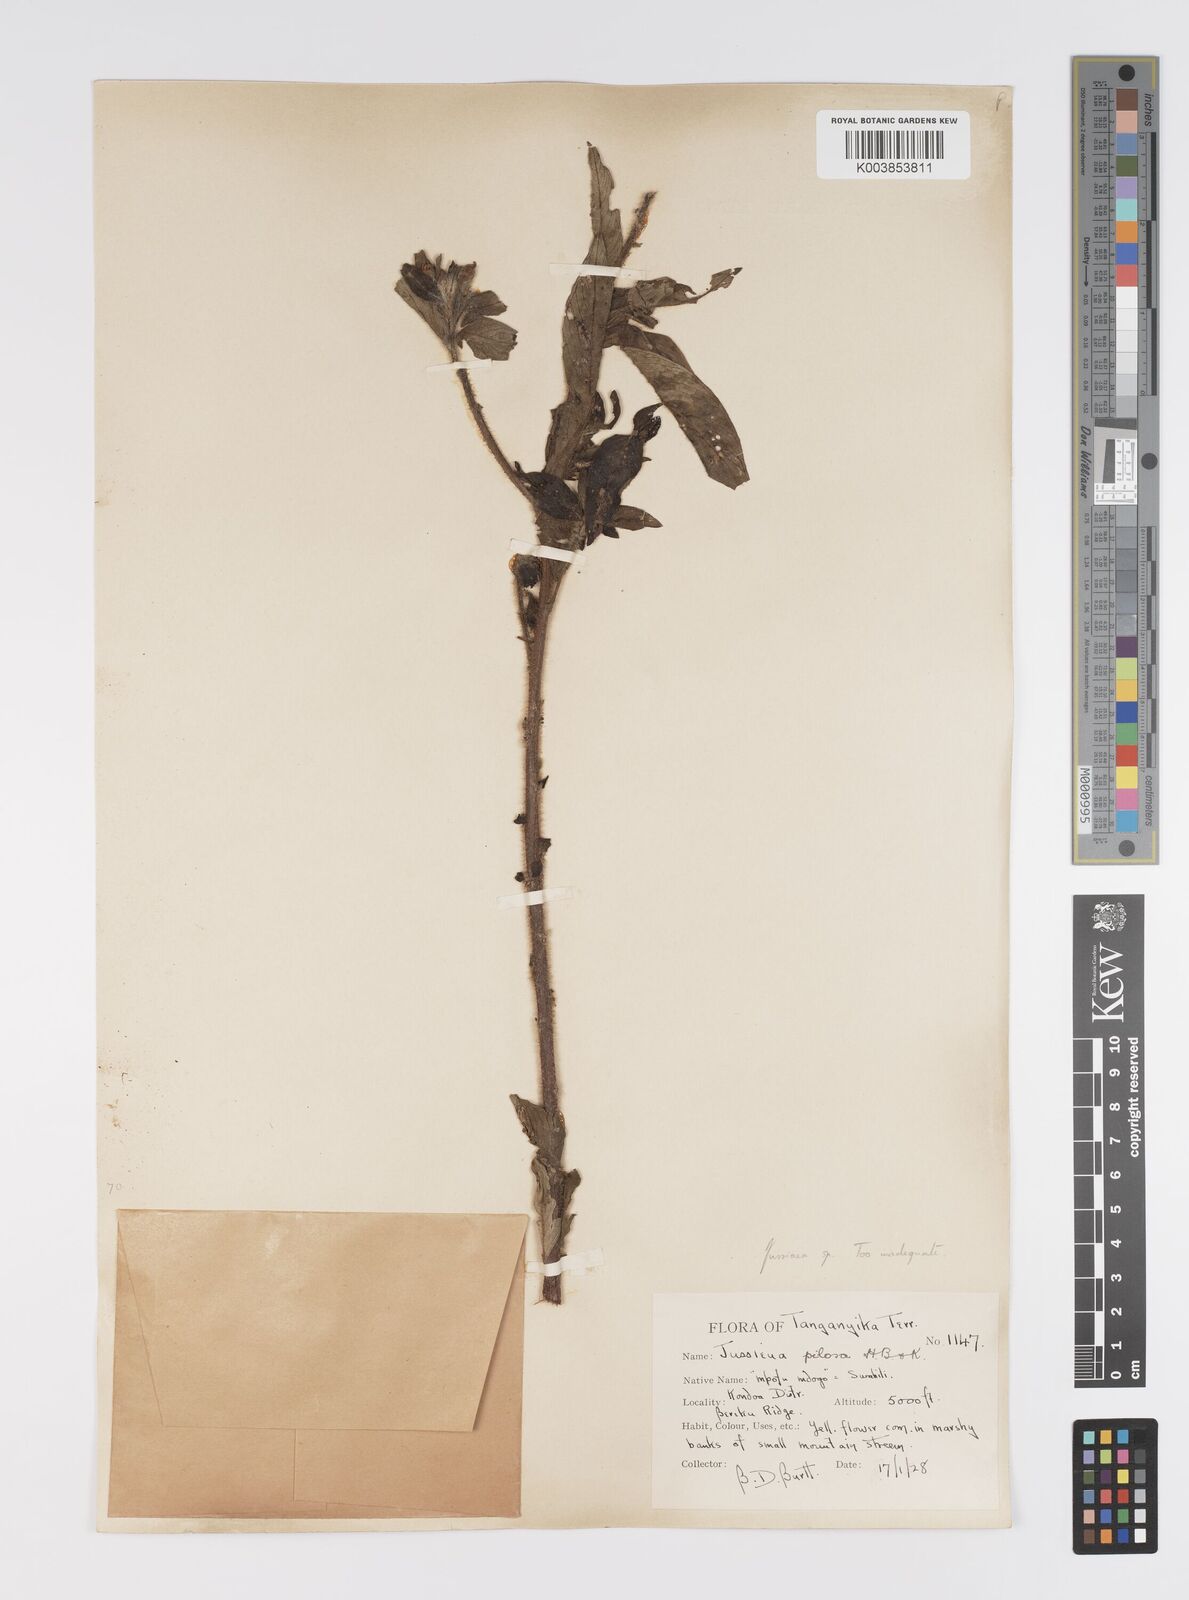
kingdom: Plantae
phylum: Tracheophyta
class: Magnoliopsida
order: Myrtales
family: Onagraceae
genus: Ludwigia
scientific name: Ludwigia
